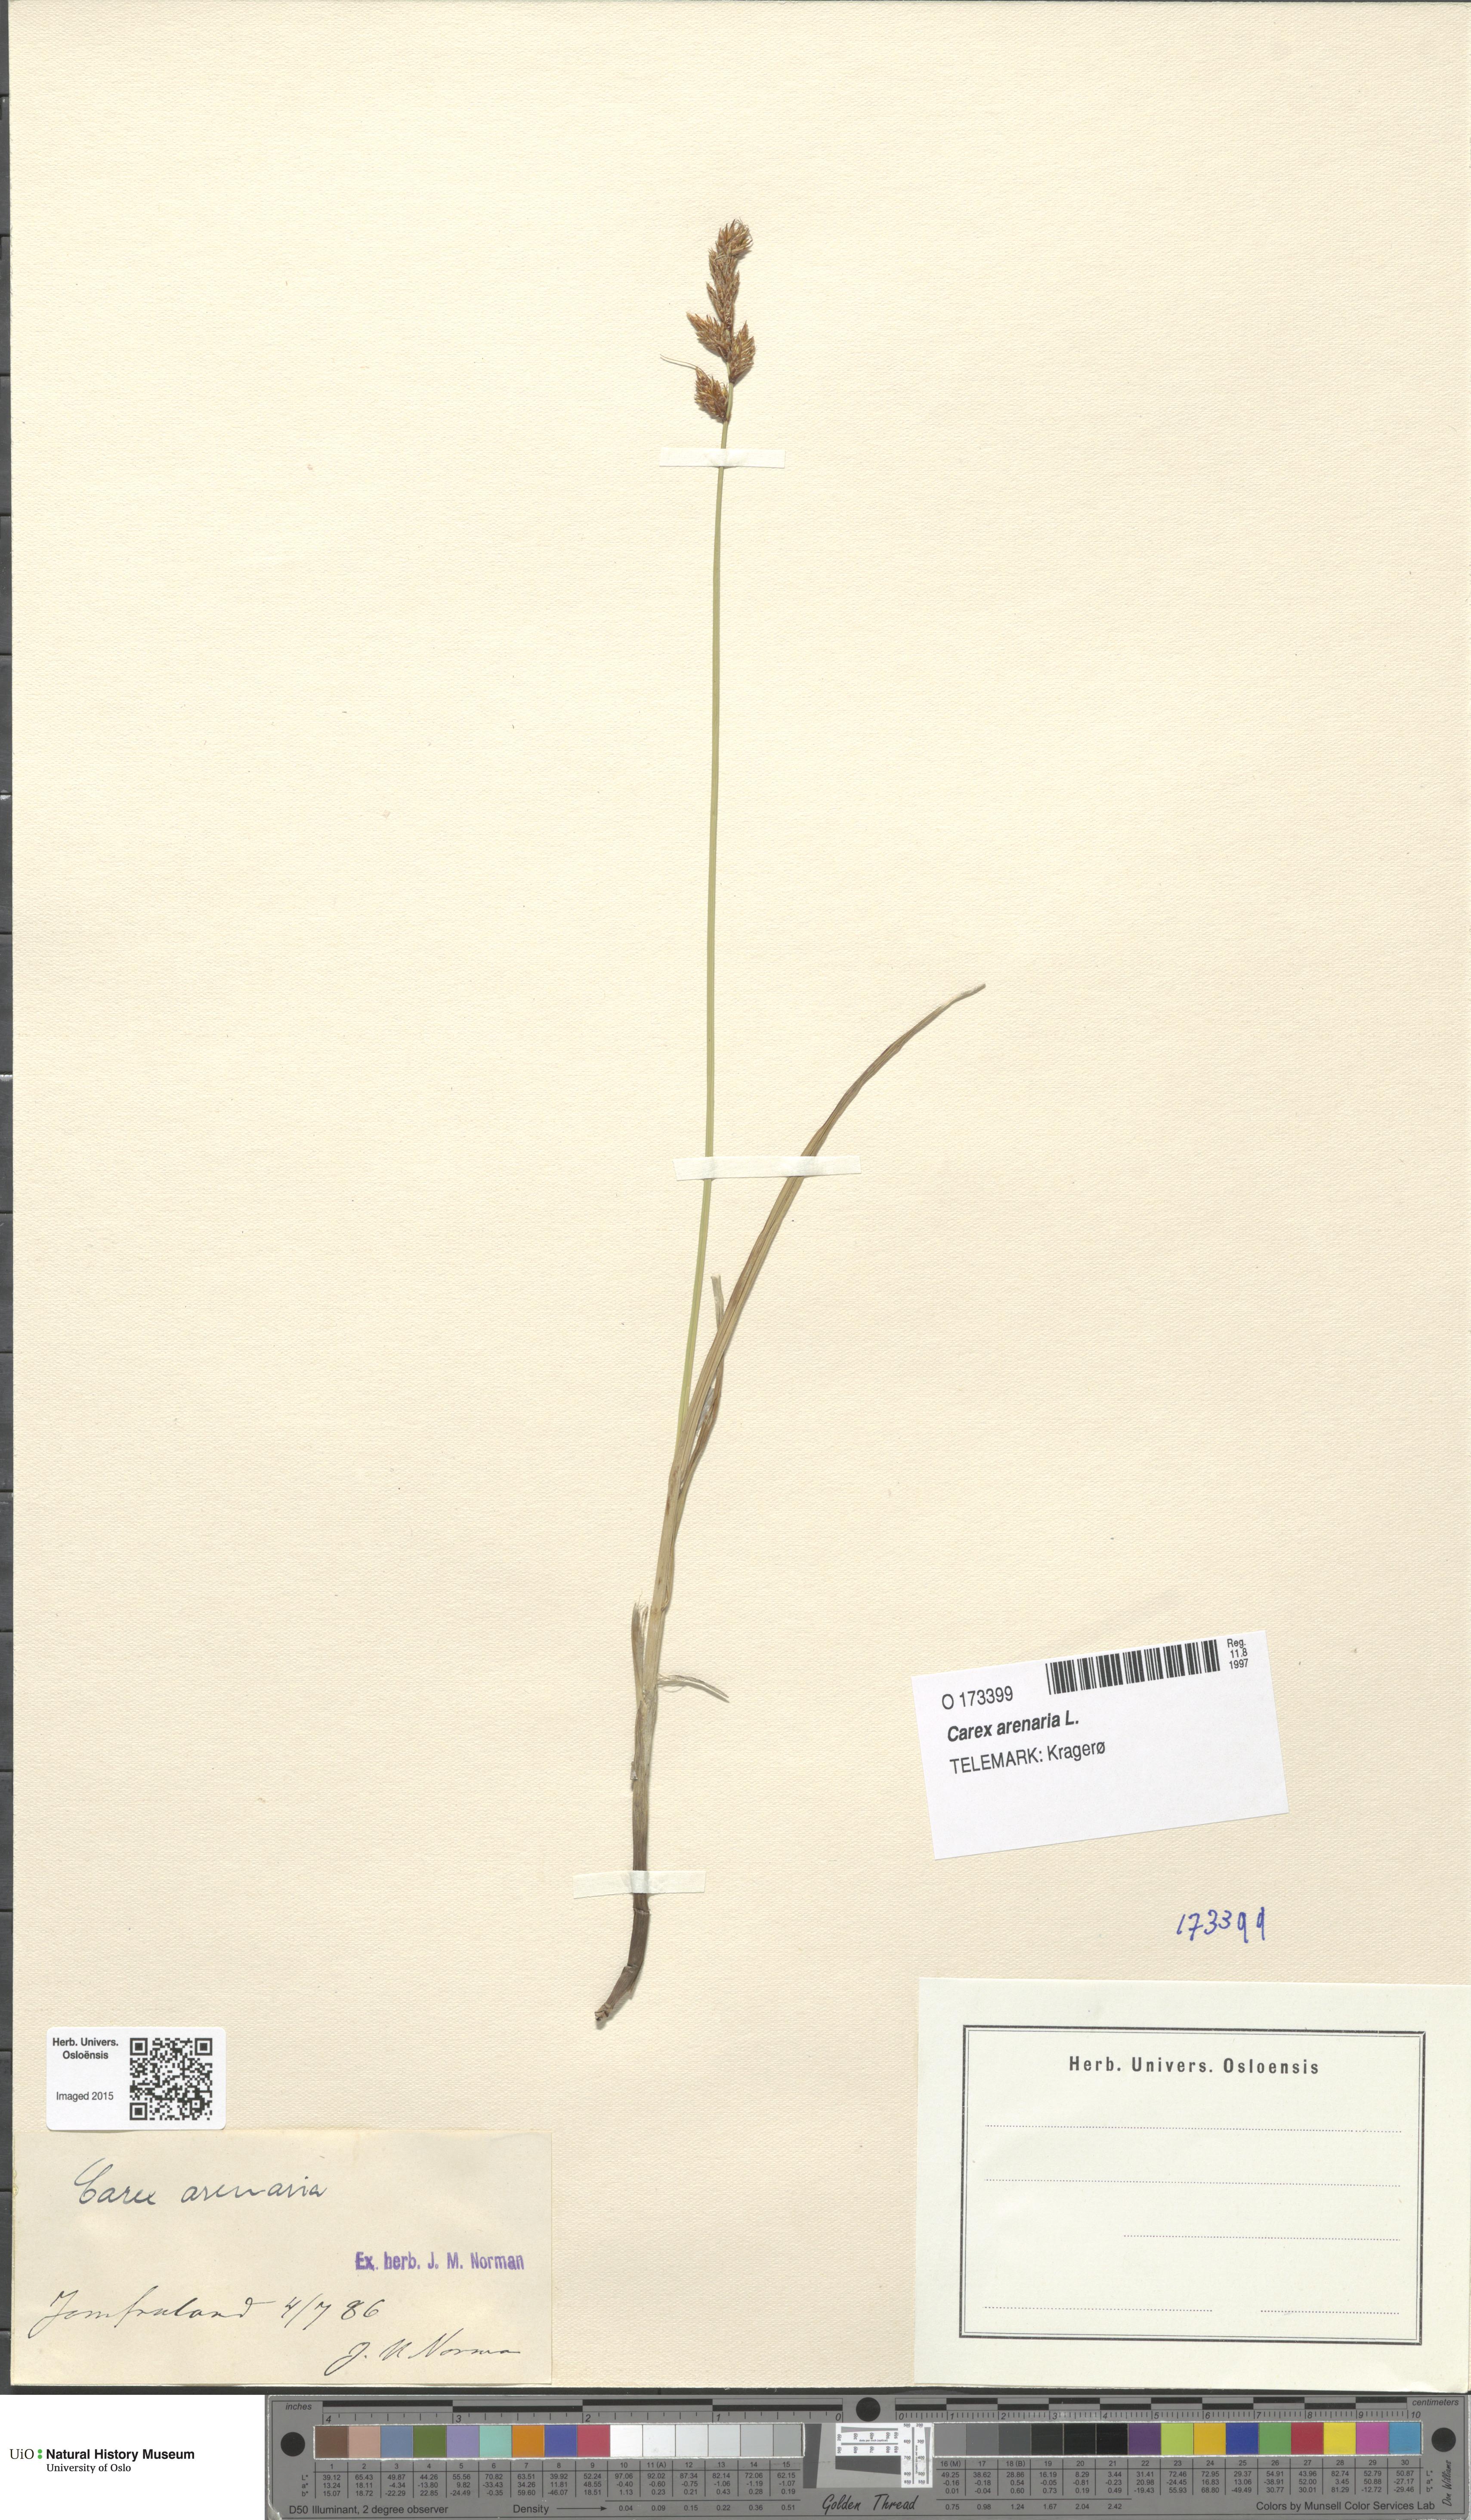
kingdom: Plantae
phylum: Tracheophyta
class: Liliopsida
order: Poales
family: Cyperaceae
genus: Carex
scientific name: Carex arenaria
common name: Sand sedge
